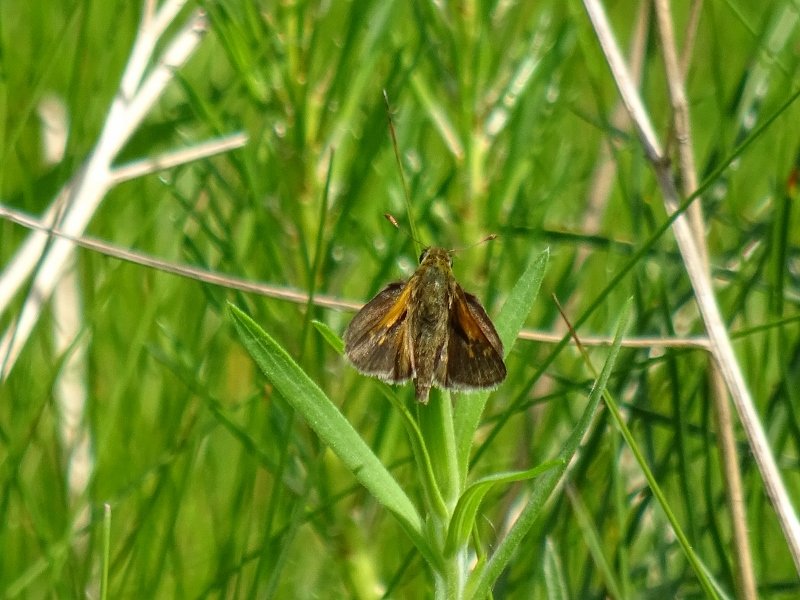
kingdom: Animalia
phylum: Arthropoda
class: Insecta
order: Lepidoptera
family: Hesperiidae
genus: Polites
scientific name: Polites themistocles
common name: Tawny-edged Skipper
